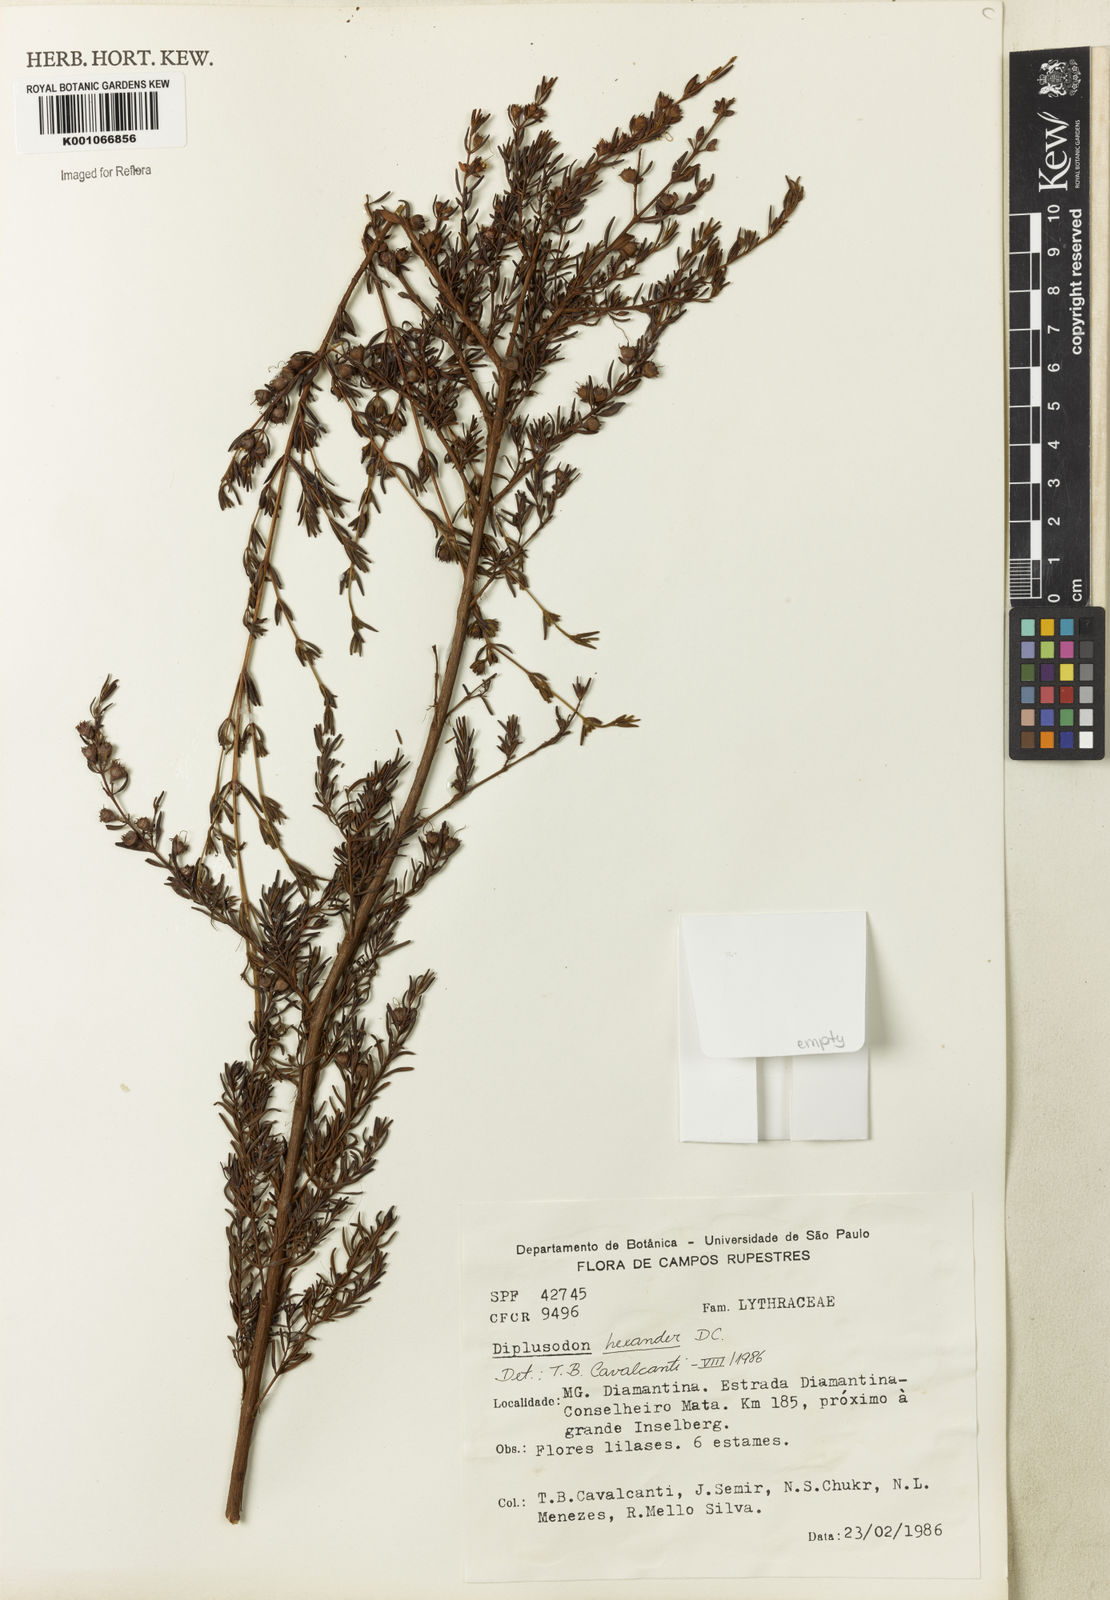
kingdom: Plantae
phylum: Tracheophyta
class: Magnoliopsida
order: Myrtales
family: Lythraceae
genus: Diplusodon
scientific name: Diplusodon hexander
